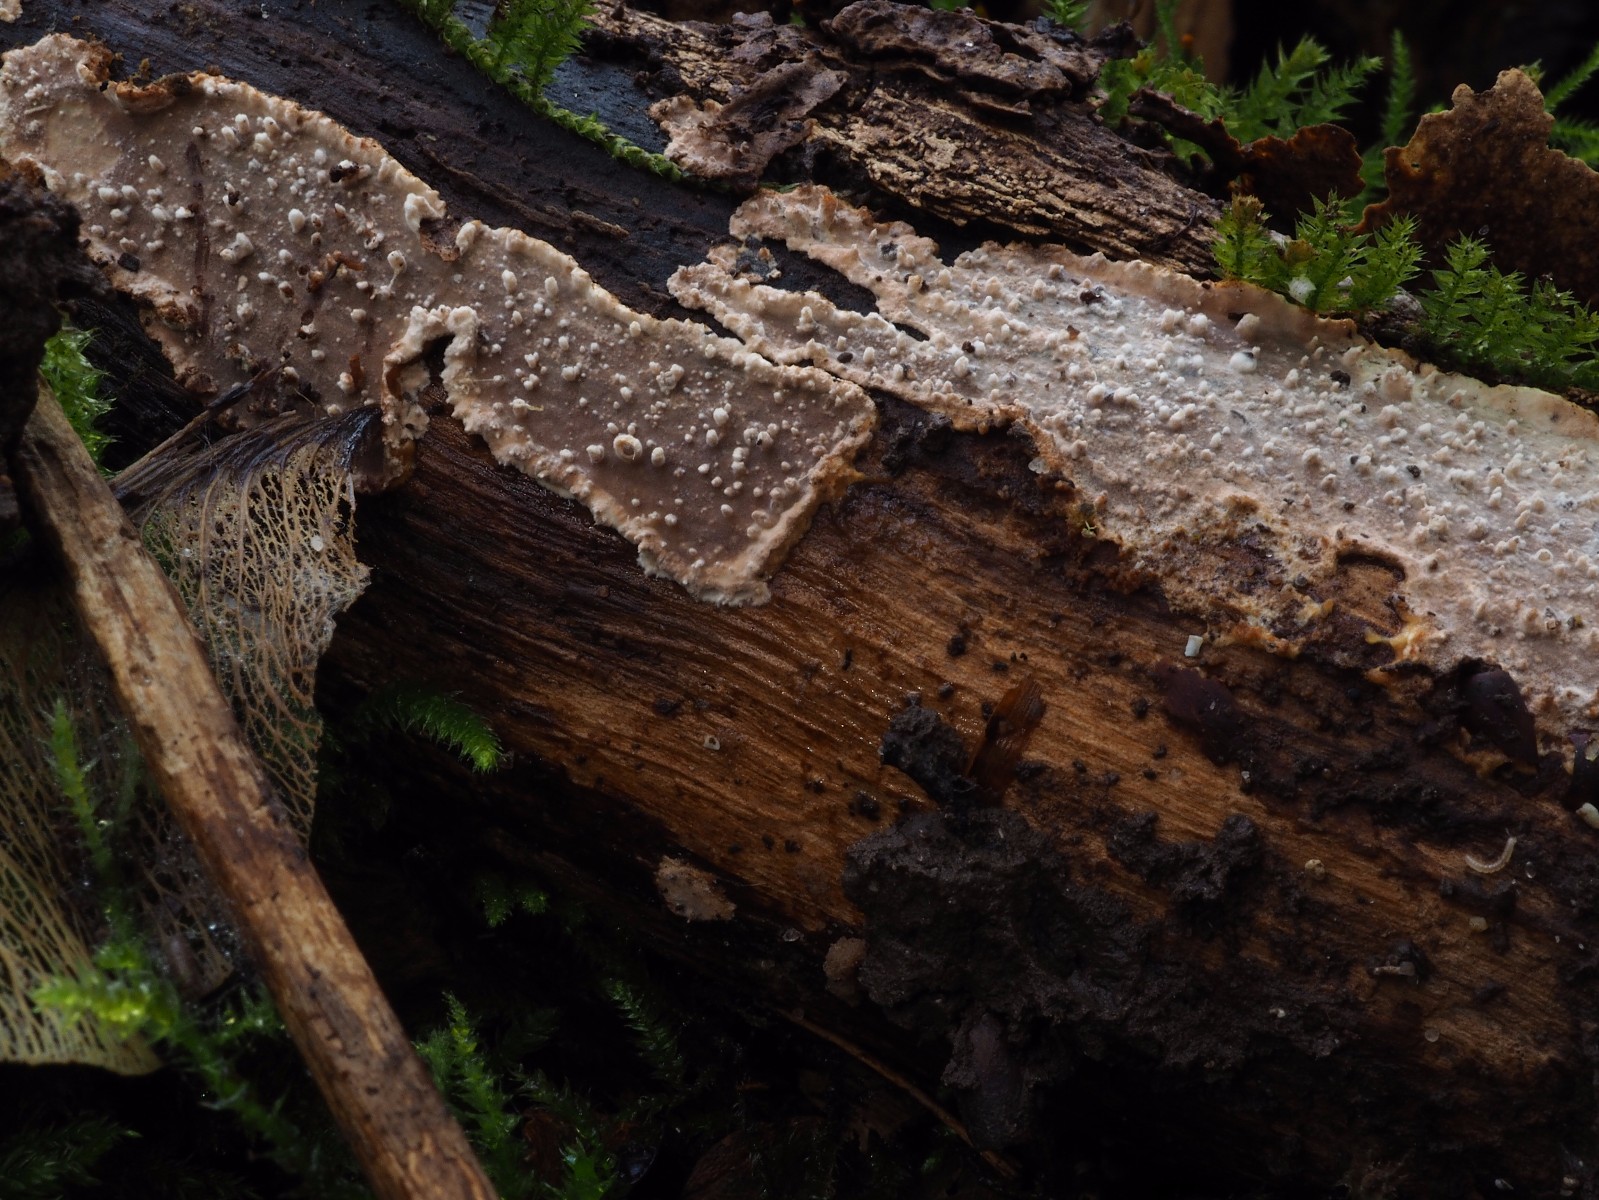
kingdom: Fungi
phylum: Basidiomycota
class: Agaricomycetes
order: Hymenochaetales
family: Rickenellaceae
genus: Resinicium
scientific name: Resinicium bicolor
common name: almindelig vokstand
